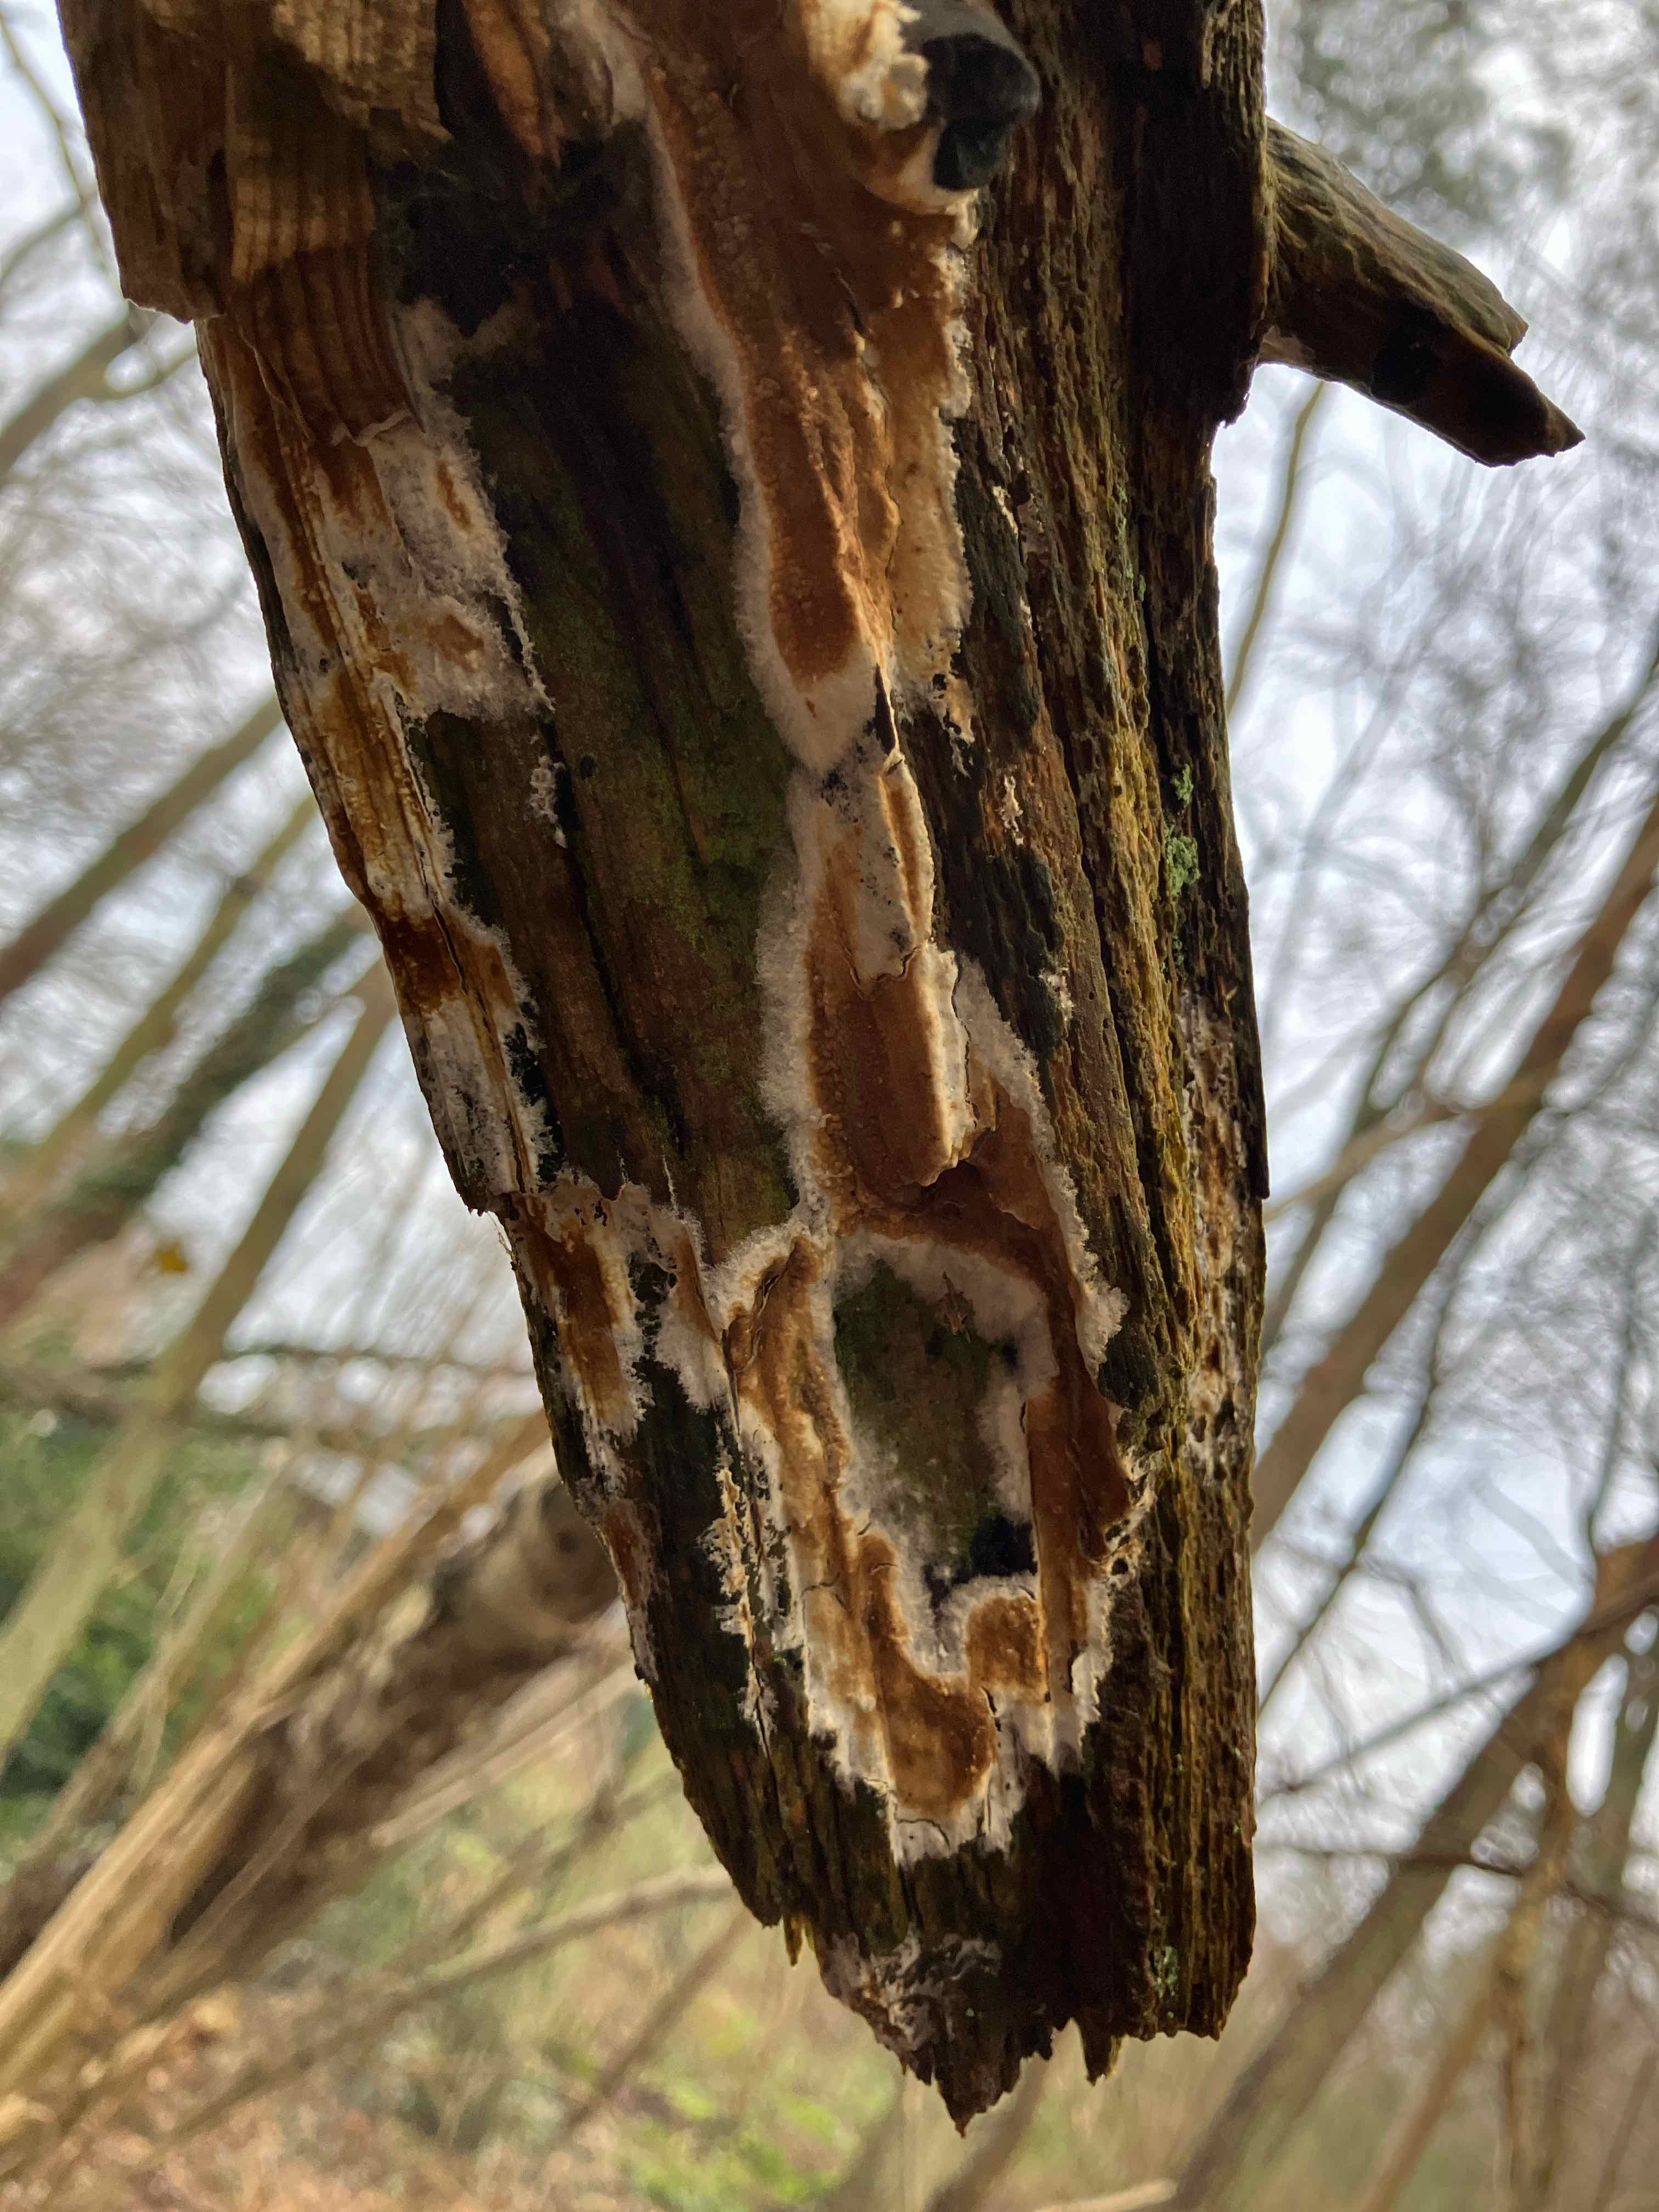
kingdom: Fungi
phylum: Basidiomycota
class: Agaricomycetes
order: Boletales
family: Coniophoraceae
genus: Coniophora
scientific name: Coniophora
